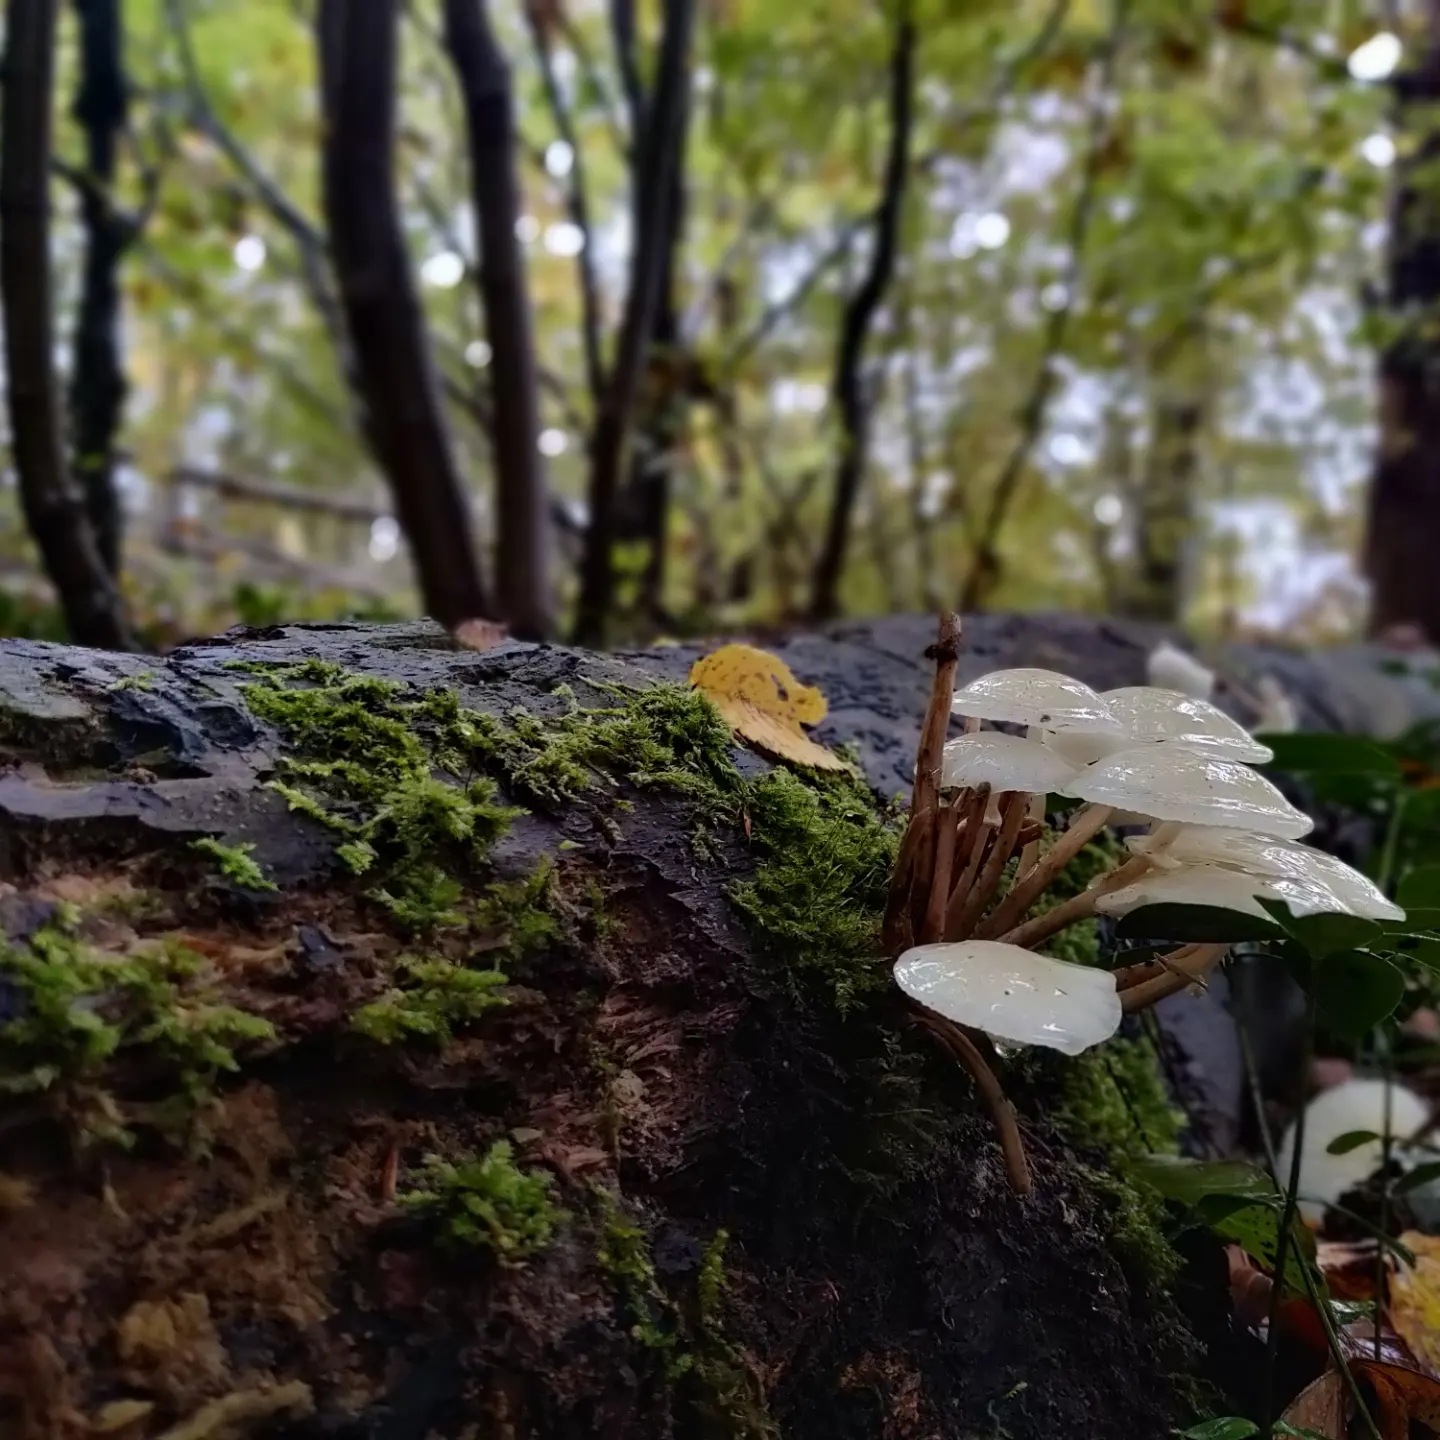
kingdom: Fungi
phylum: Basidiomycota
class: Agaricomycetes
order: Agaricales
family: Physalacriaceae
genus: Mucidula
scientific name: Mucidula mucida
